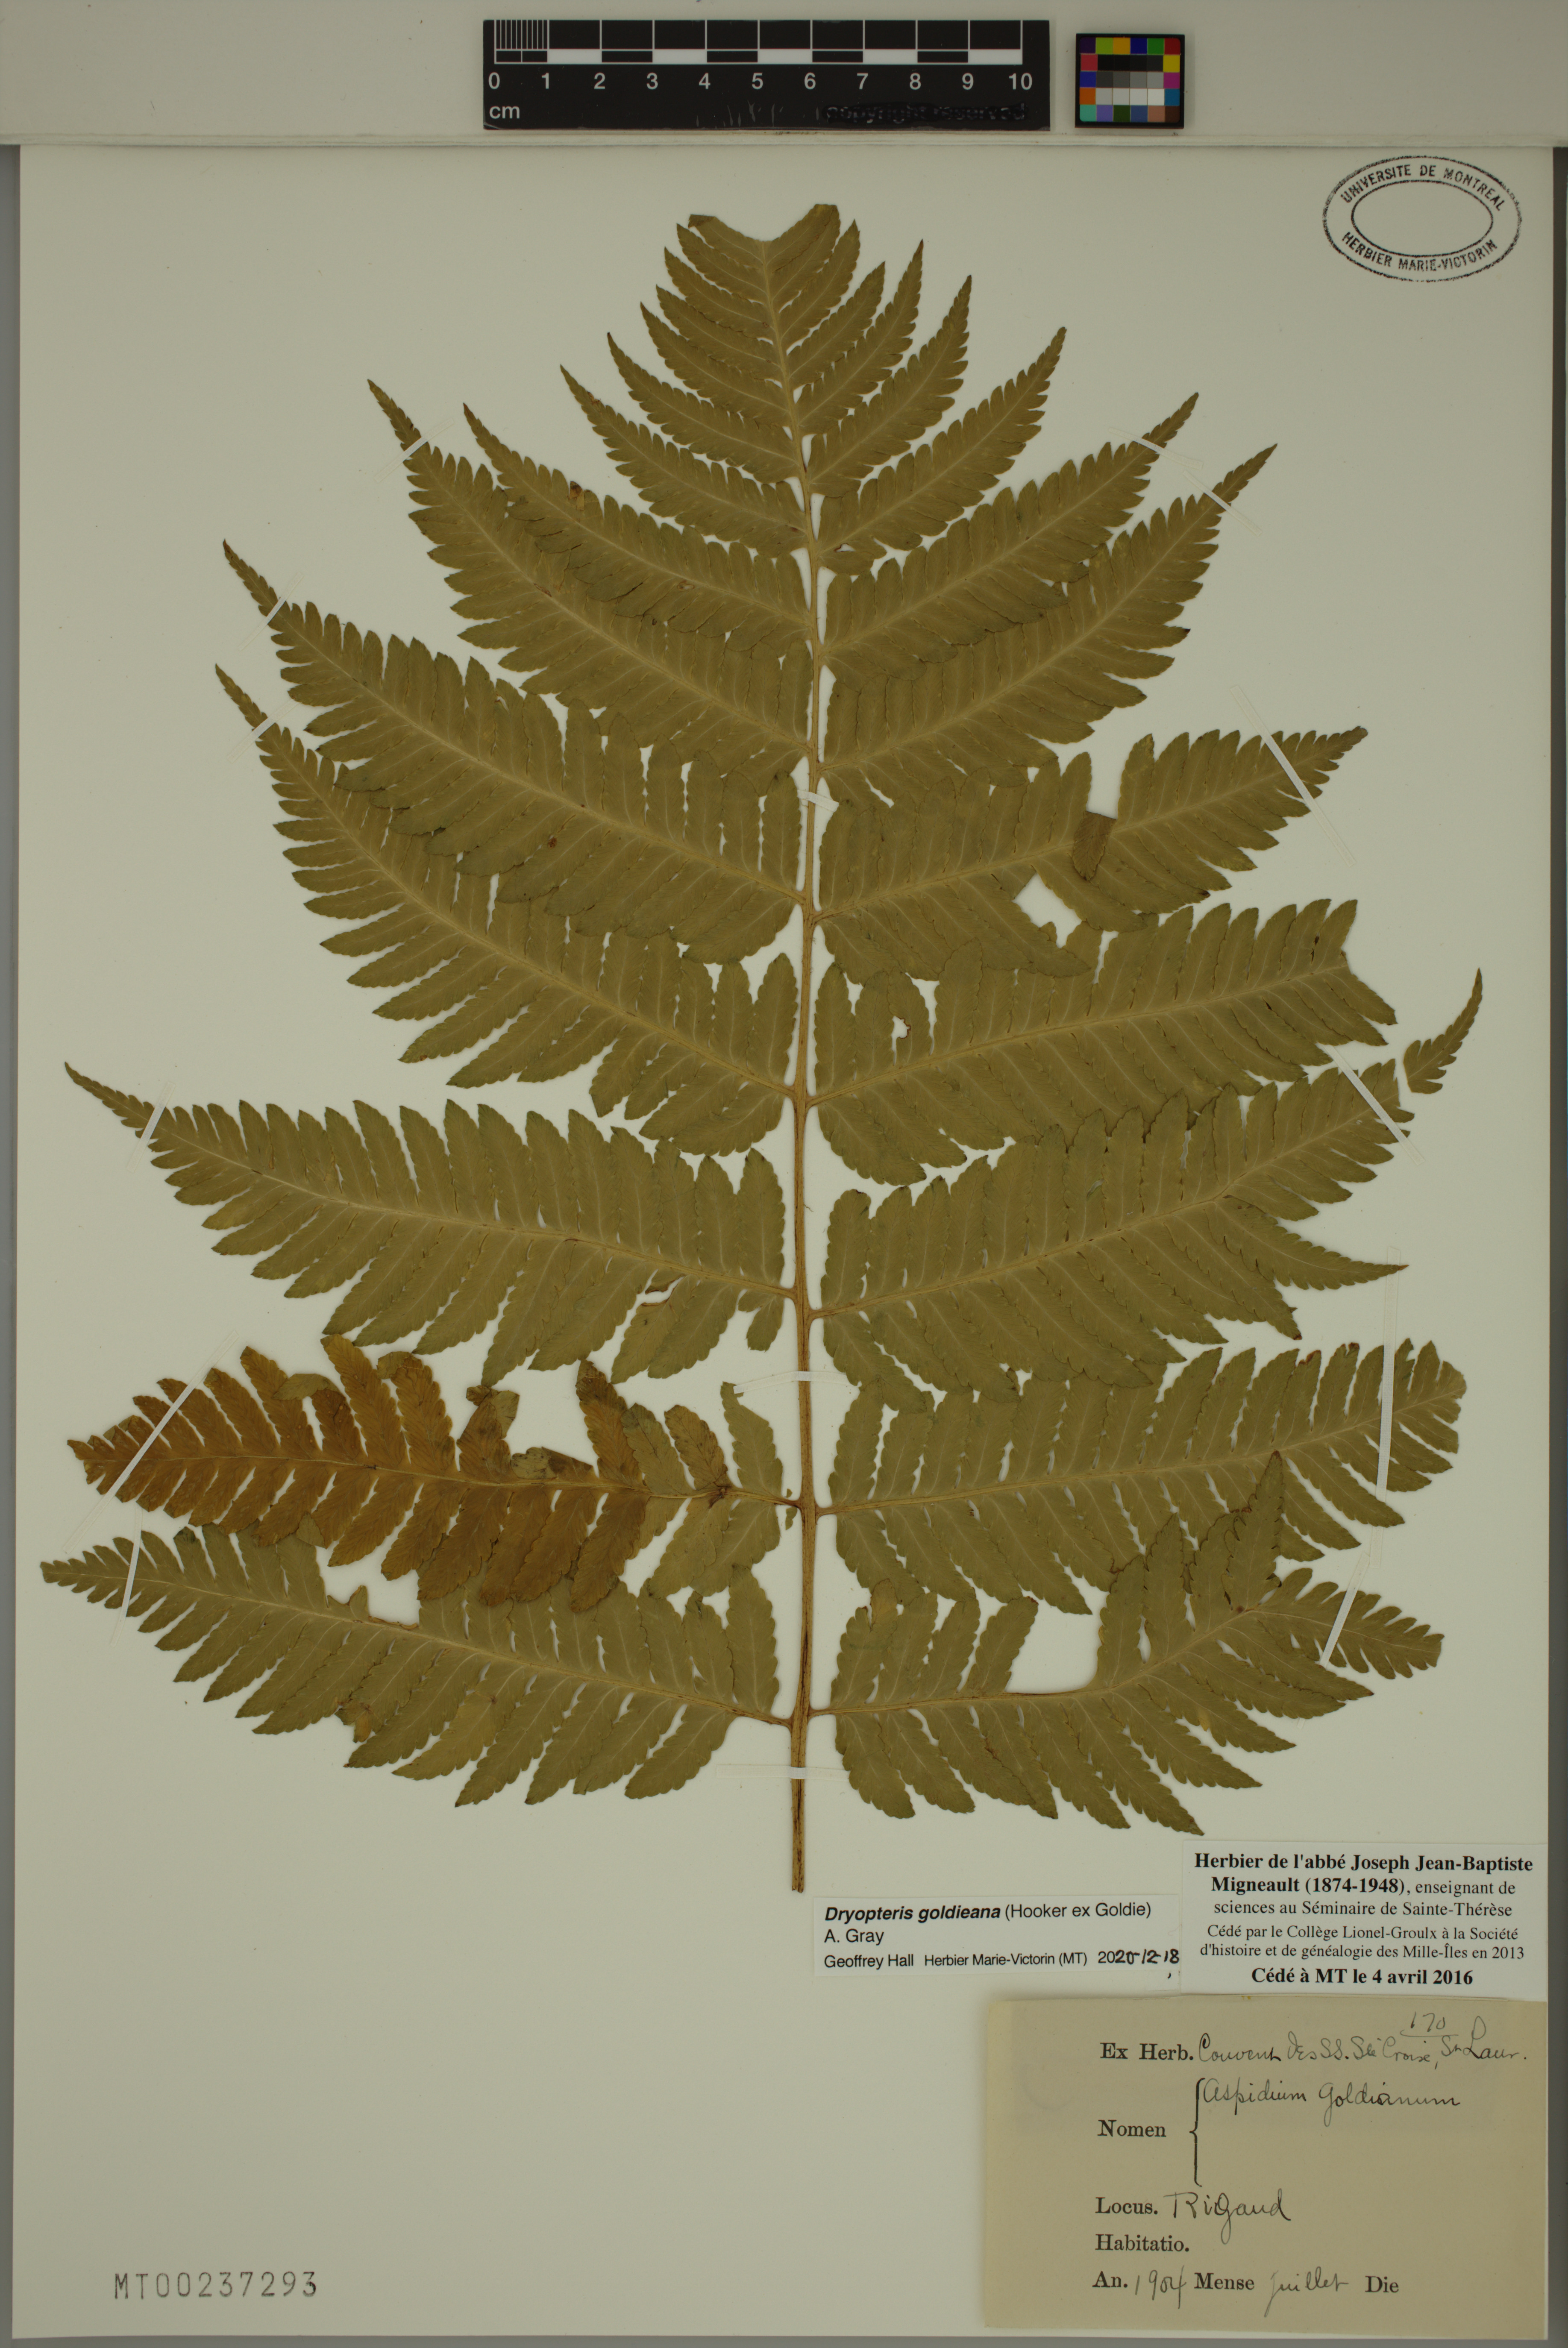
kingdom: Plantae
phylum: Tracheophyta
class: Polypodiopsida
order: Polypodiales
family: Dryopteridaceae
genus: Dryopteris
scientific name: Dryopteris goldieana
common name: Goldie's fern
